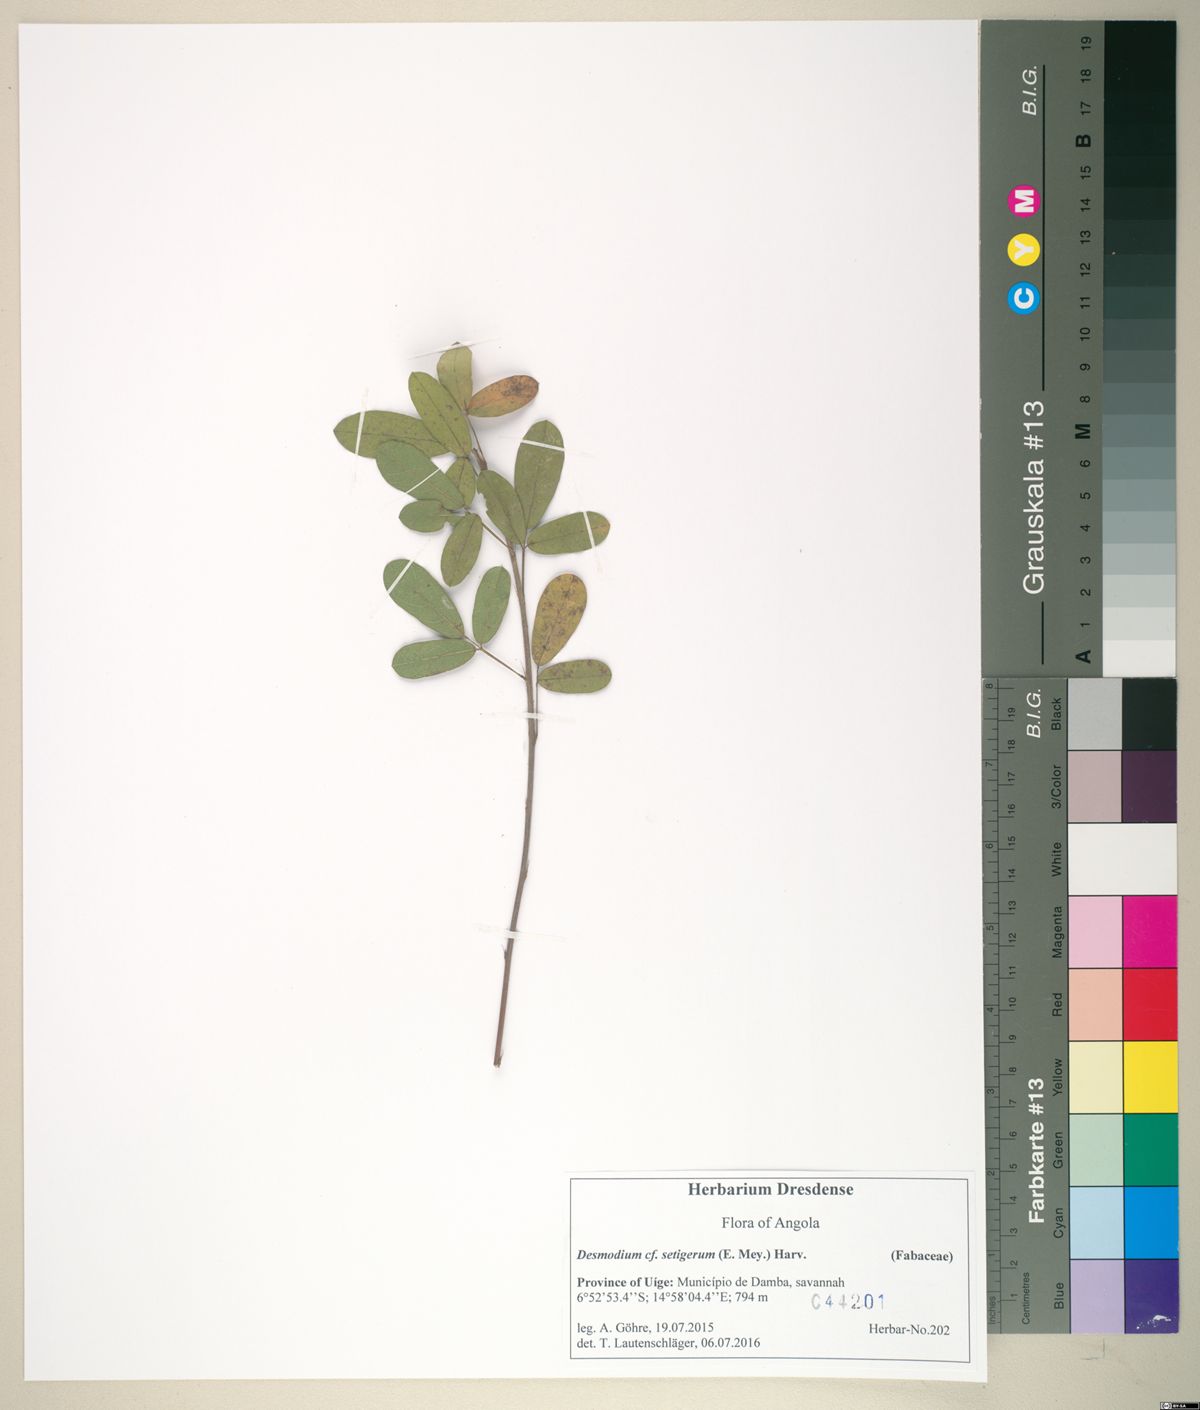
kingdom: Plantae
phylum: Tracheophyta
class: Magnoliopsida
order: Fabales
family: Fabaceae
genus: Grona
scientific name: Grona setigera
